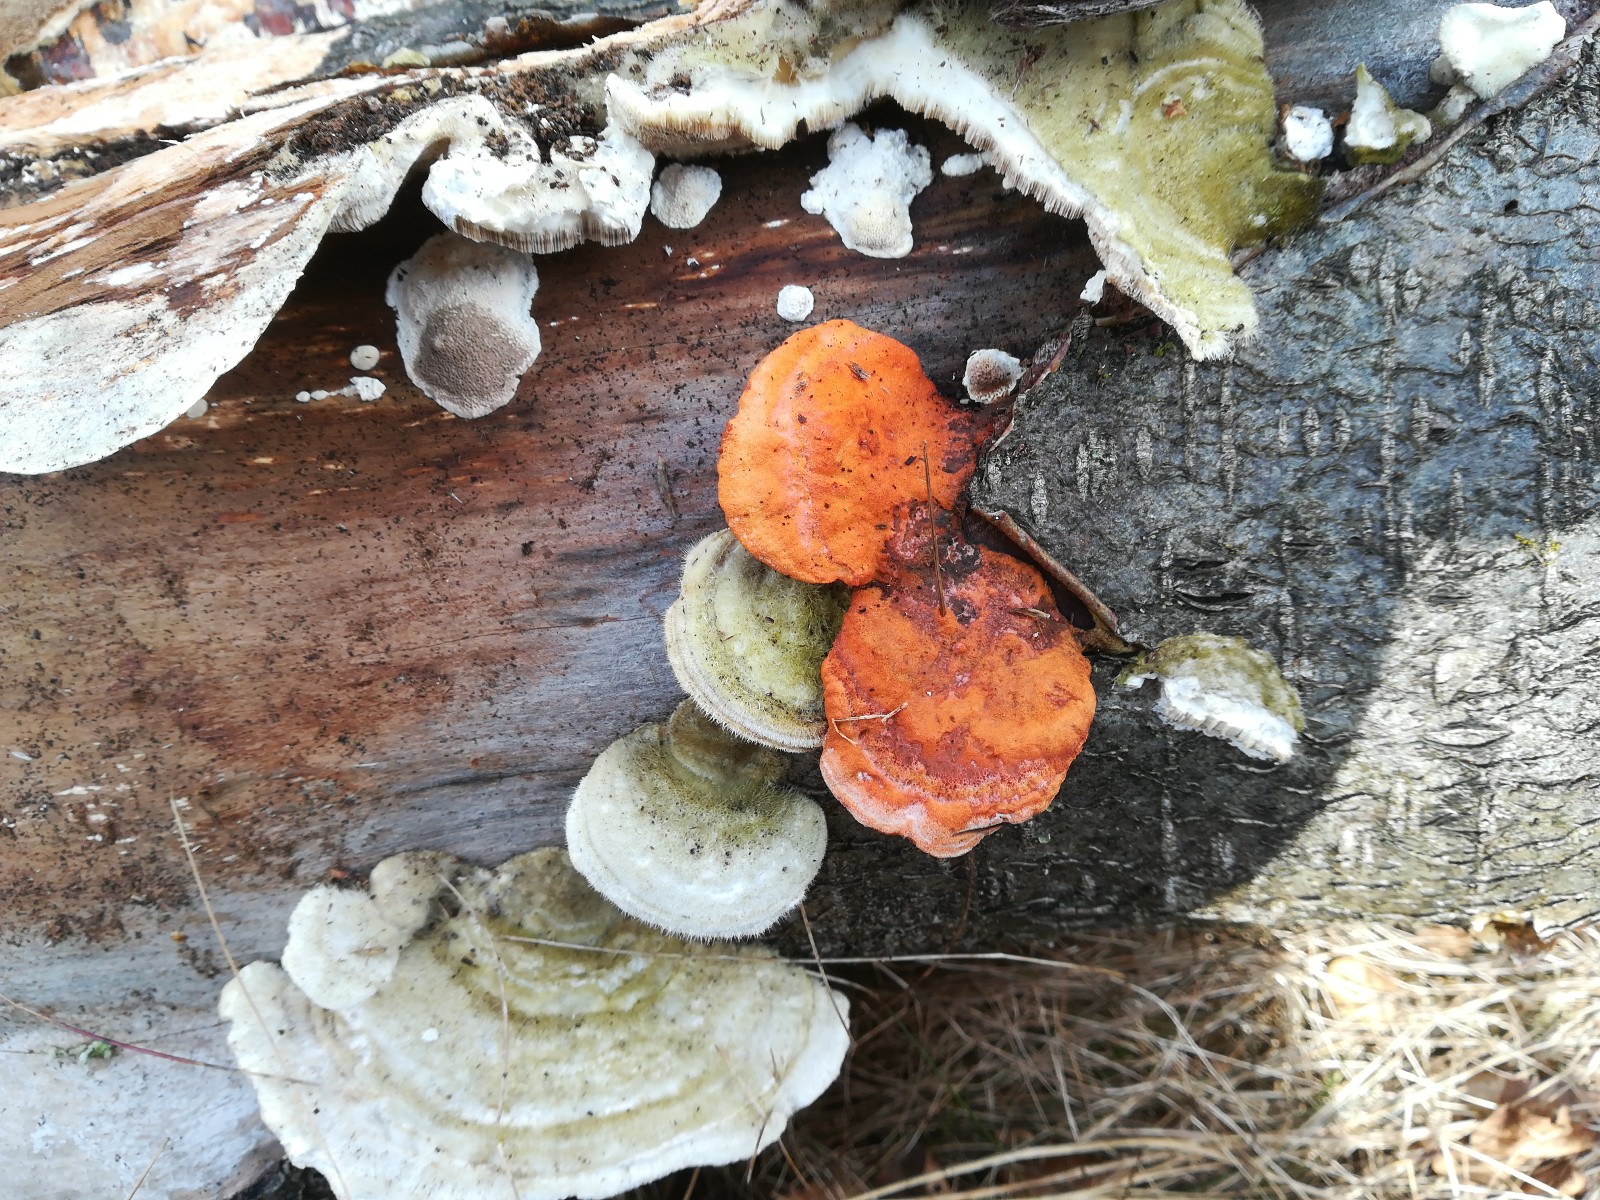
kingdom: Fungi
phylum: Basidiomycota
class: Agaricomycetes
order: Polyporales
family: Polyporaceae
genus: Trametes
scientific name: Trametes cinnabarina
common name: cinnoberporesvamp
